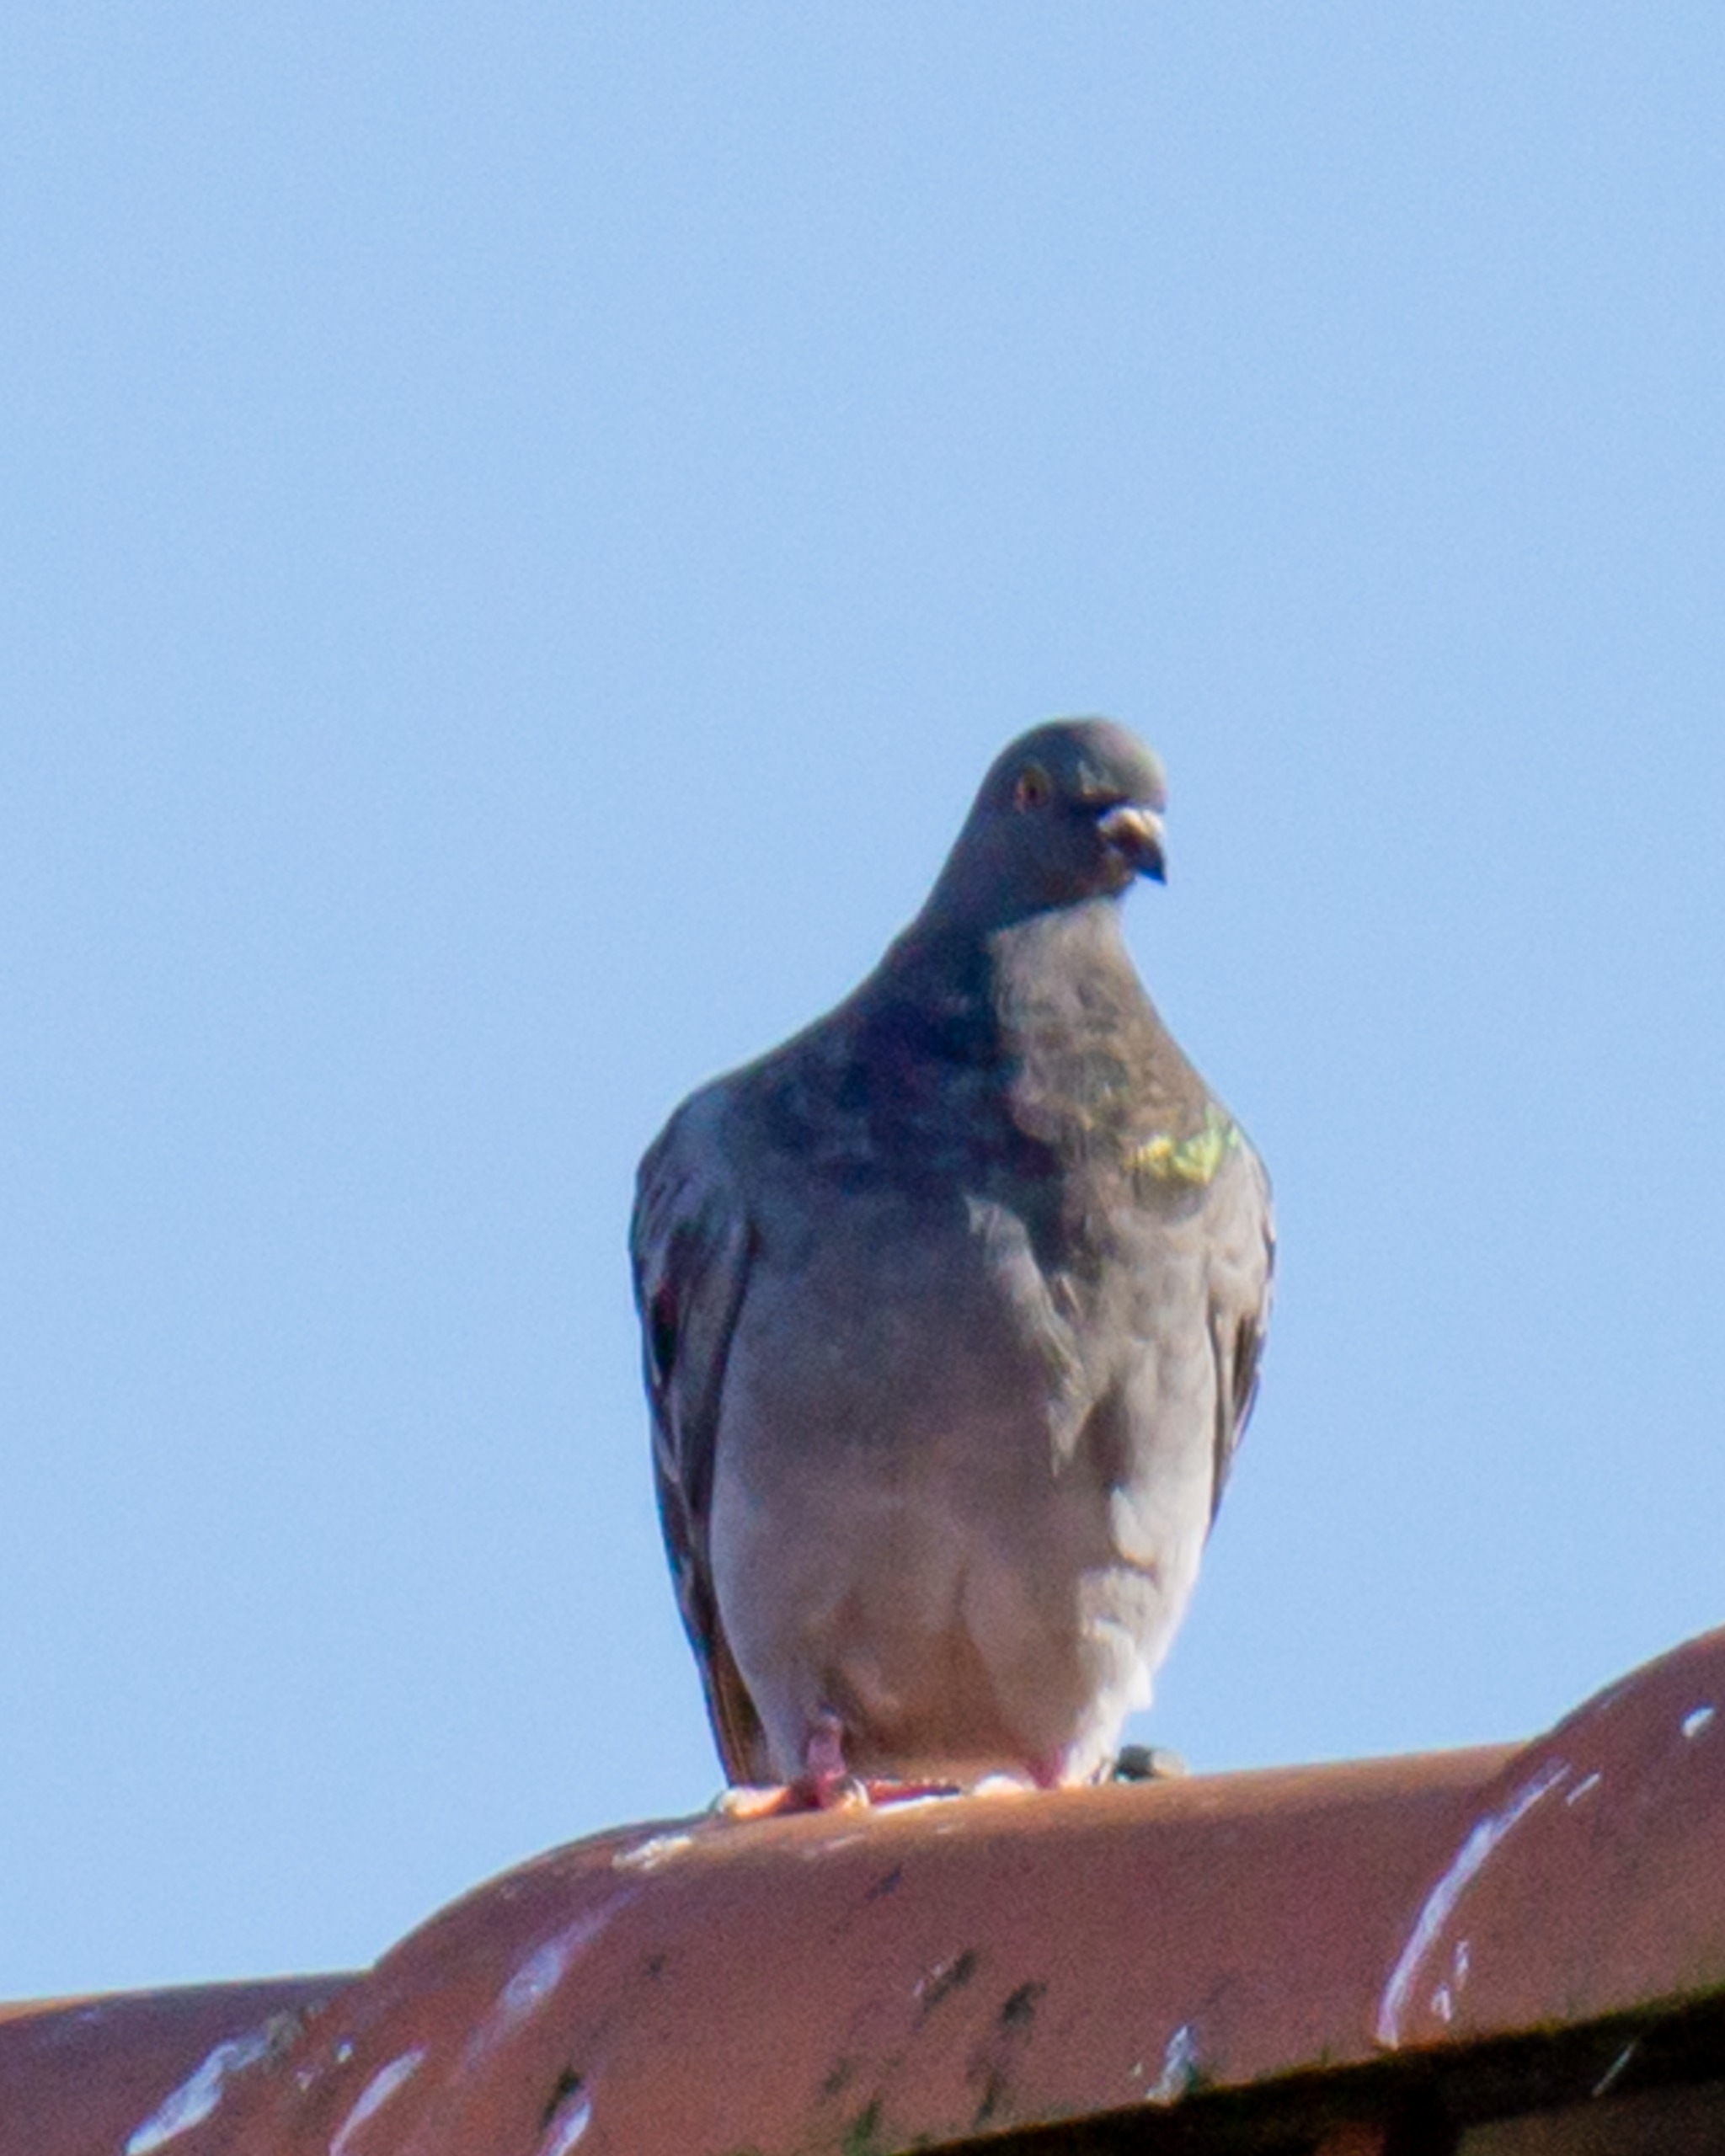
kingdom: Animalia
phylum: Chordata
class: Aves
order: Columbiformes
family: Columbidae
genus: Columba
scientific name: Columba livia
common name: Tamdue
